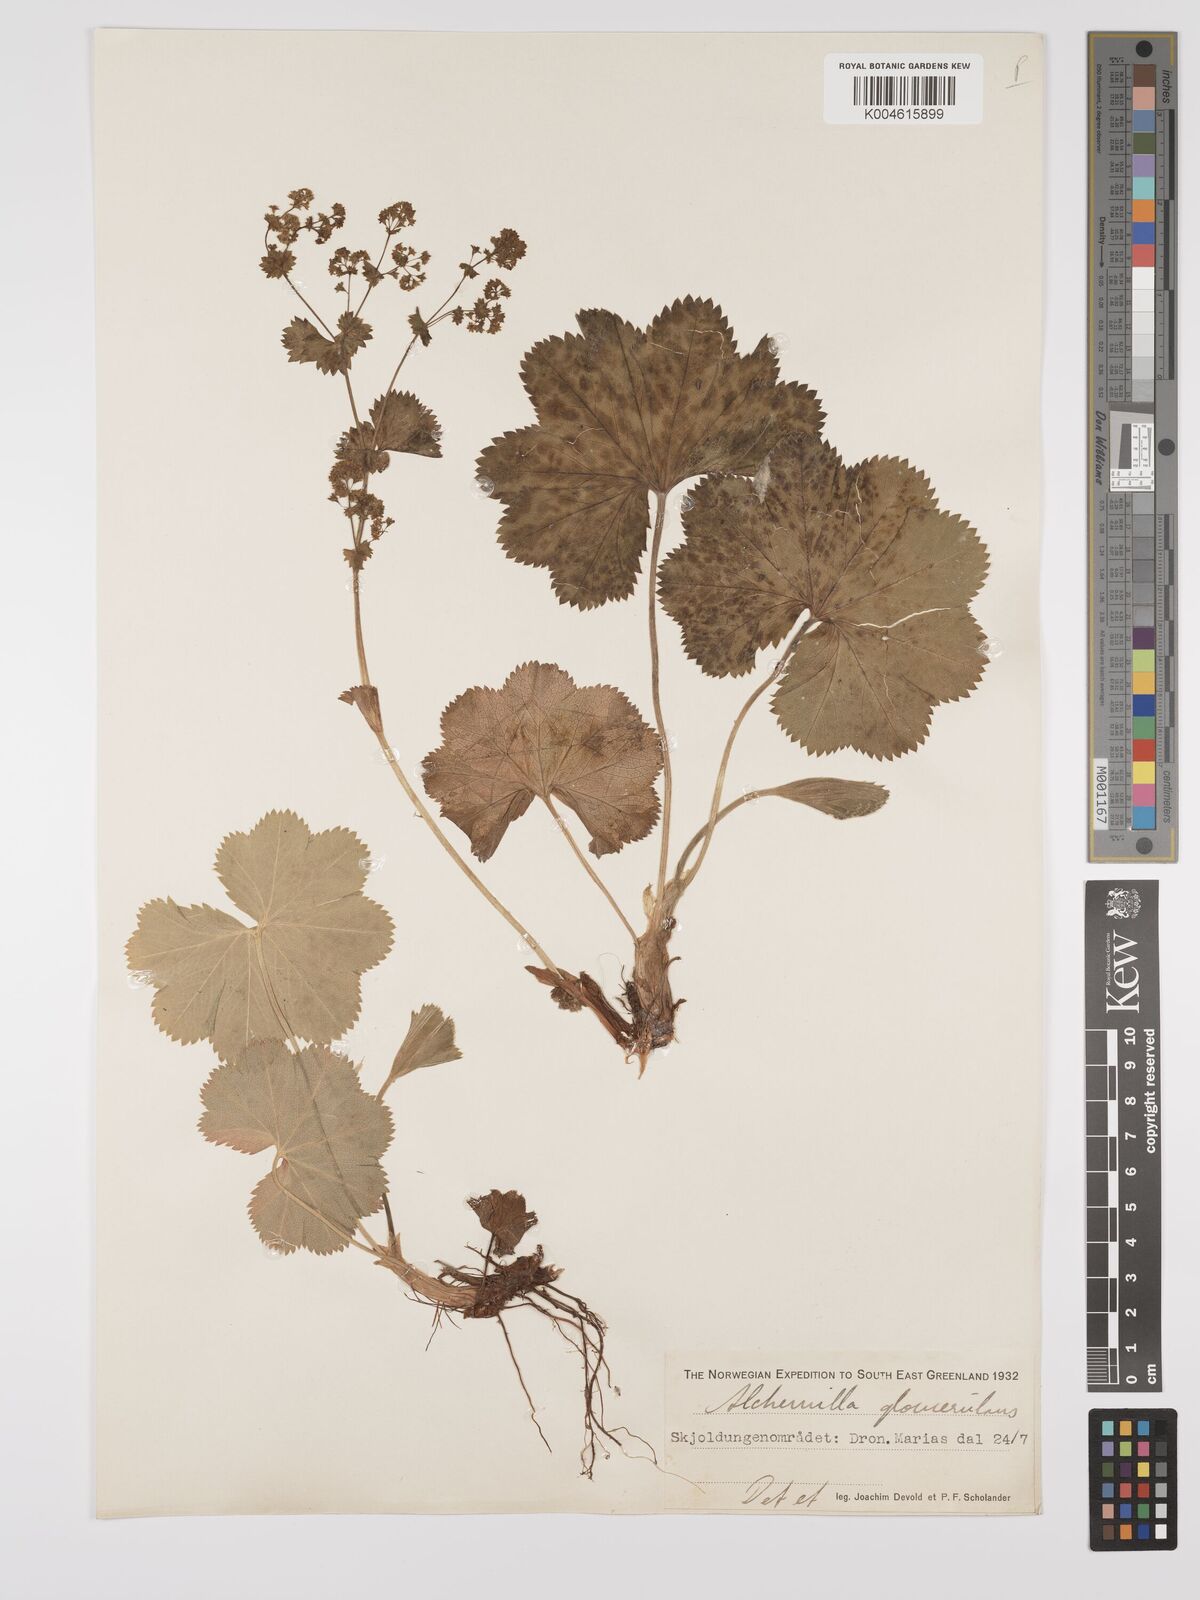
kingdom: Plantae
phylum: Tracheophyta
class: Magnoliopsida
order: Rosales
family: Rosaceae
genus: Alchemilla
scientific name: Alchemilla glomerulans
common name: Clustered lady's mantle
